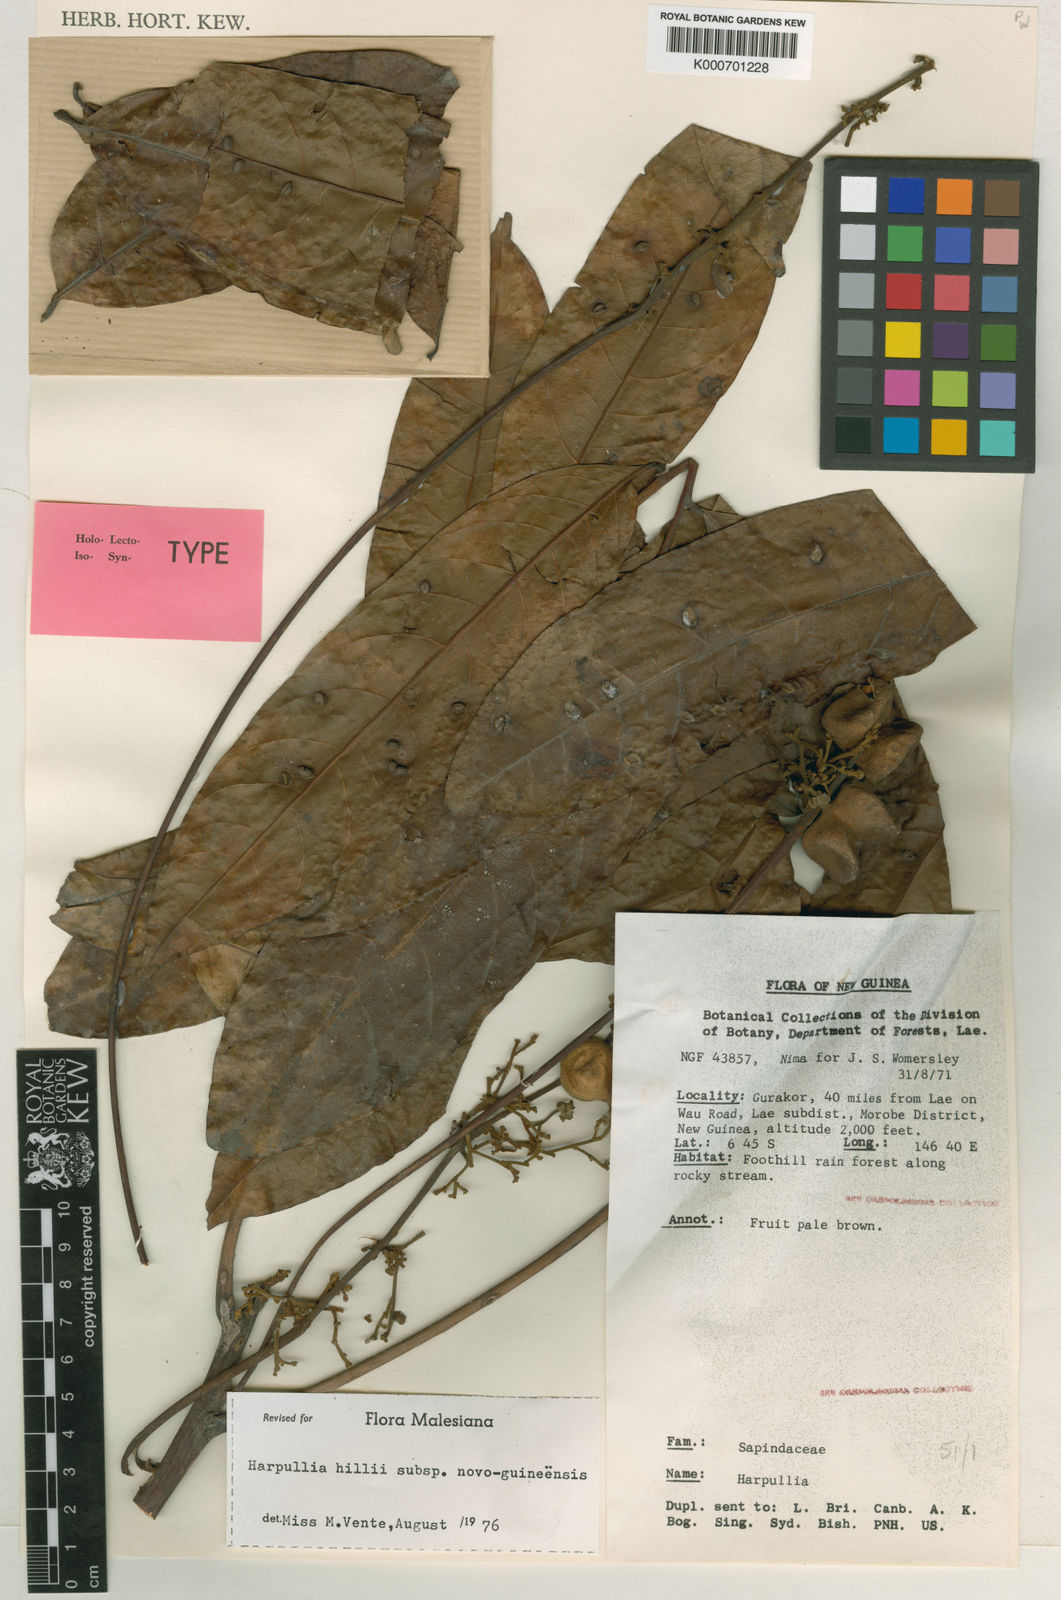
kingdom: Plantae
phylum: Tracheophyta
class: Magnoliopsida
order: Sapindales
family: Sapindaceae
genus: Harpullia
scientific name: Harpullia cupanioides
